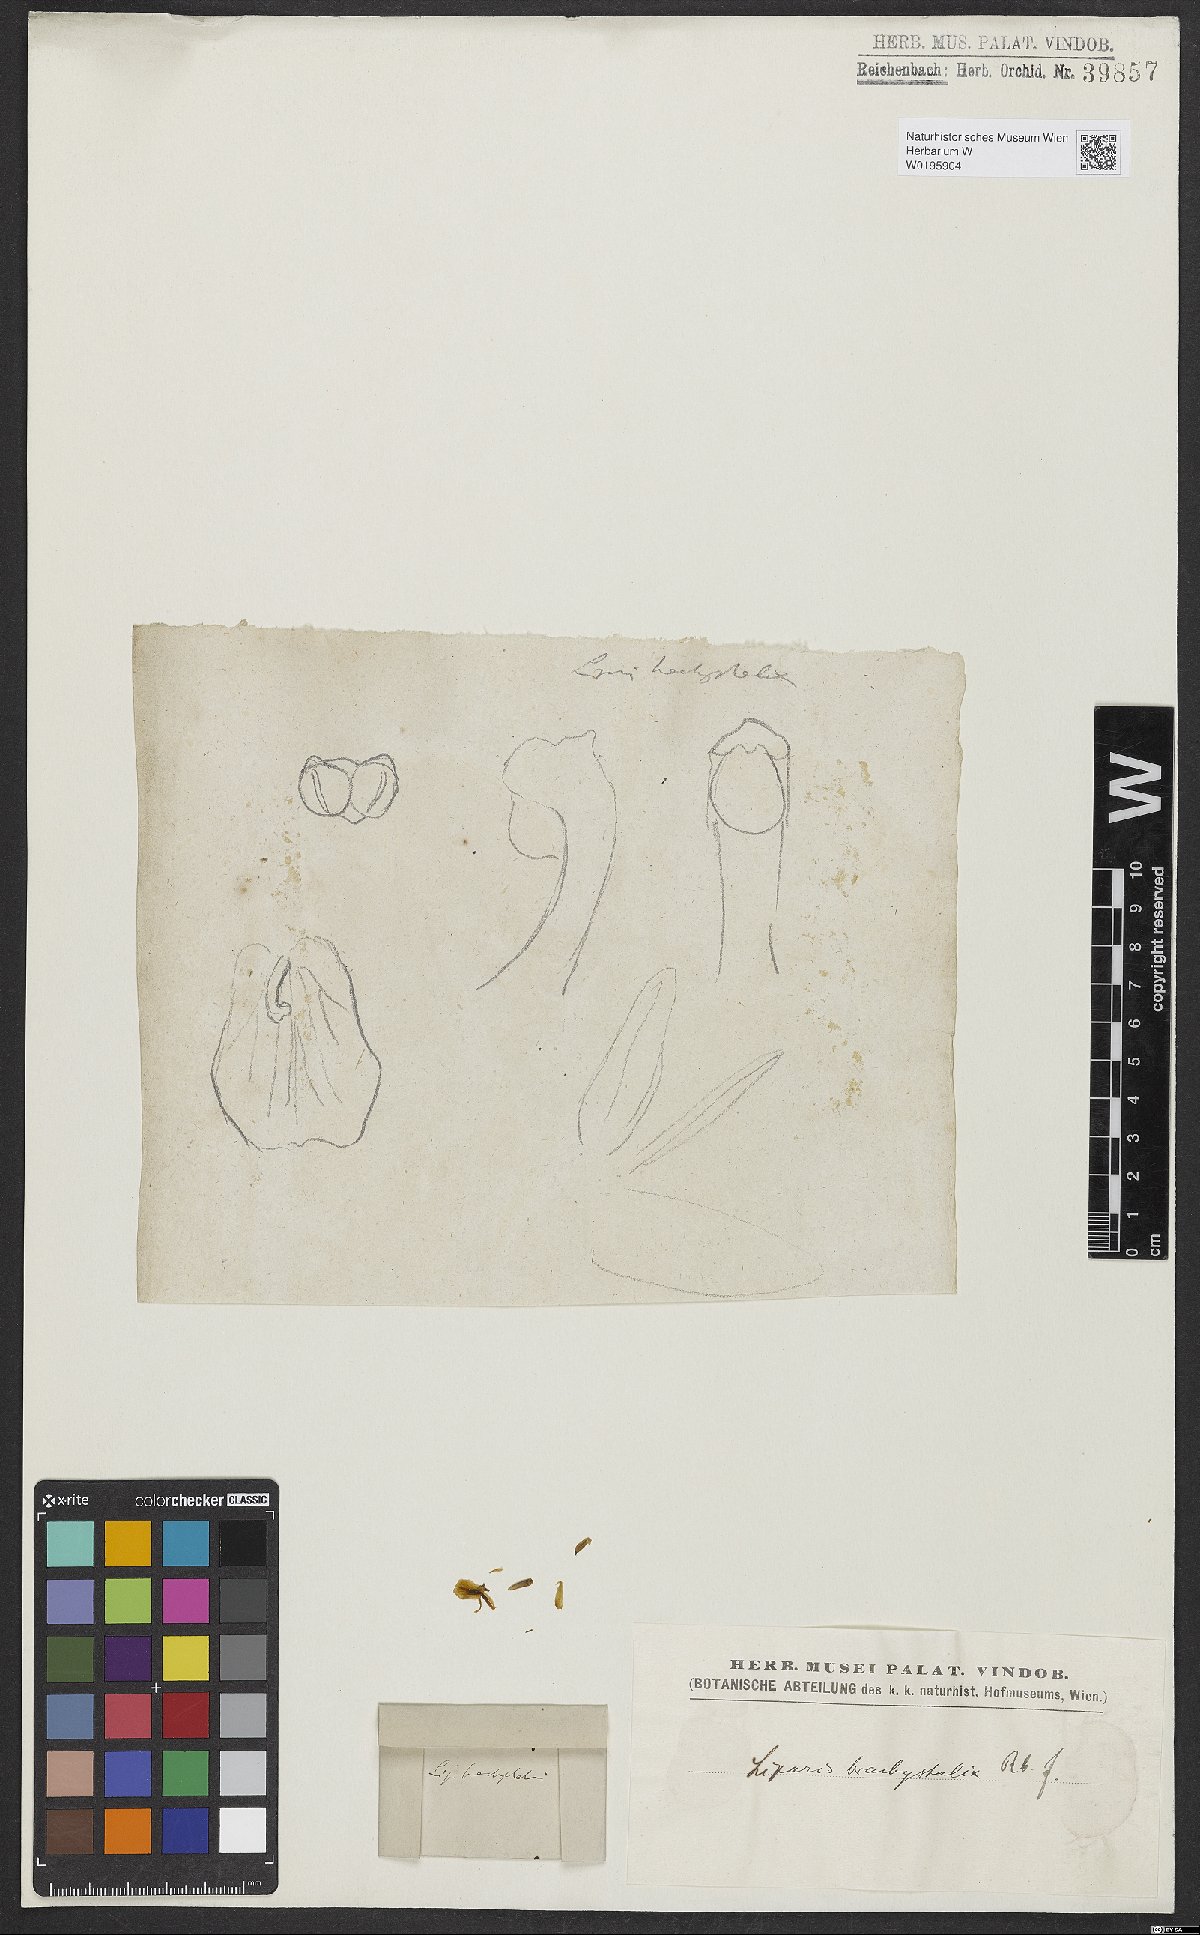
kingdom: Plantae
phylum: Tracheophyta
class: Liliopsida
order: Asparagales
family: Orchidaceae
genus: Liparis
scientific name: Liparis brachystalix
